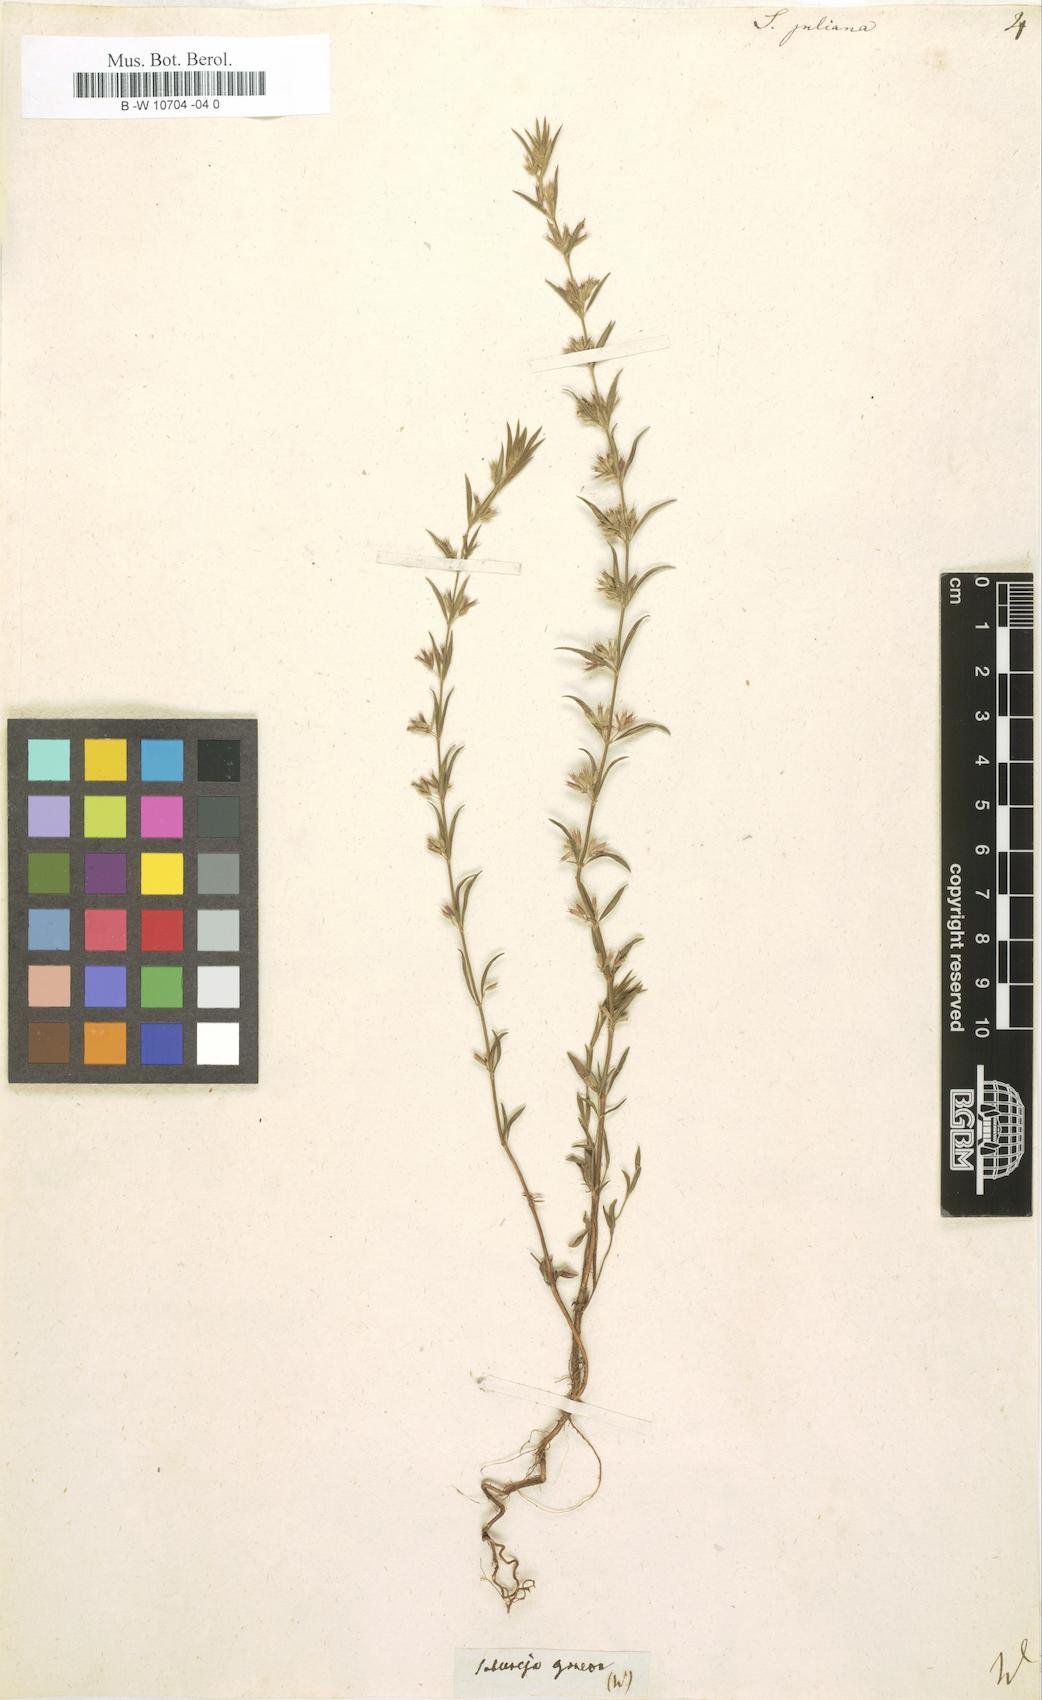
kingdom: Plantae
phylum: Tracheophyta
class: Magnoliopsida
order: Lamiales
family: Lamiaceae
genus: Micromeria
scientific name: Micromeria juliana
